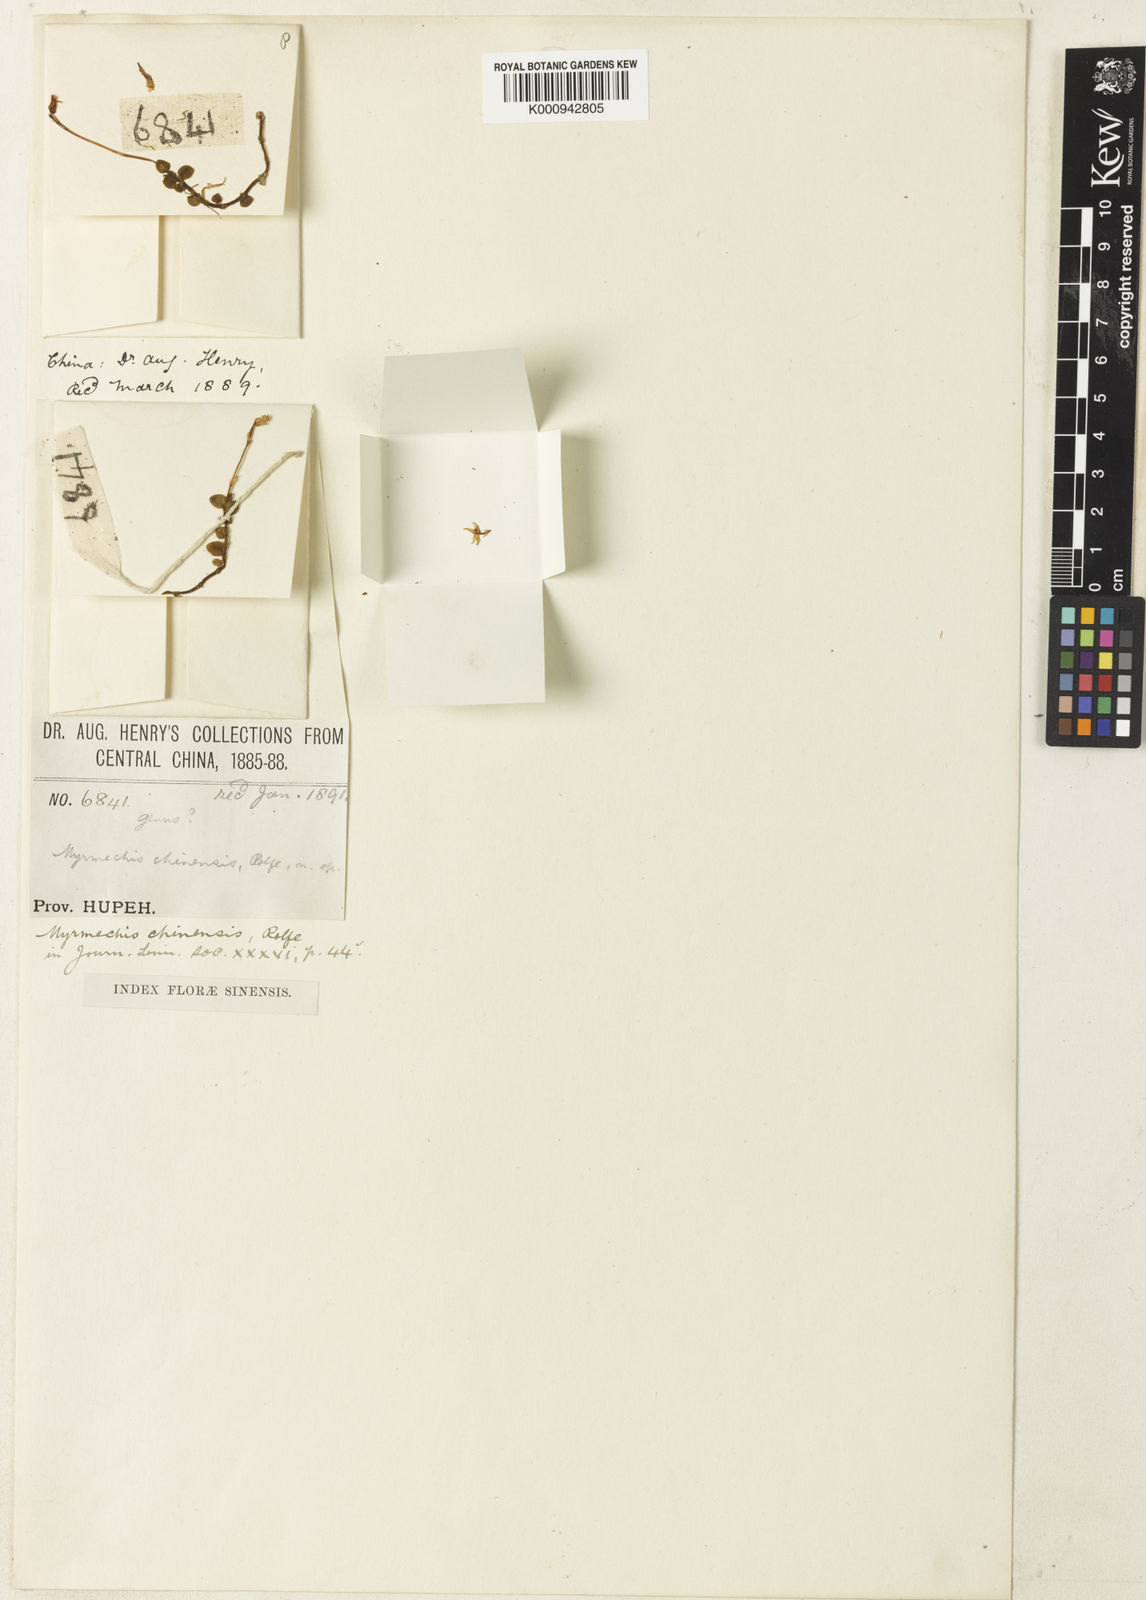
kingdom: Plantae
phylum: Tracheophyta
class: Liliopsida
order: Asparagales
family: Orchidaceae
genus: Odontochilus
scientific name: Odontochilus chinensis
